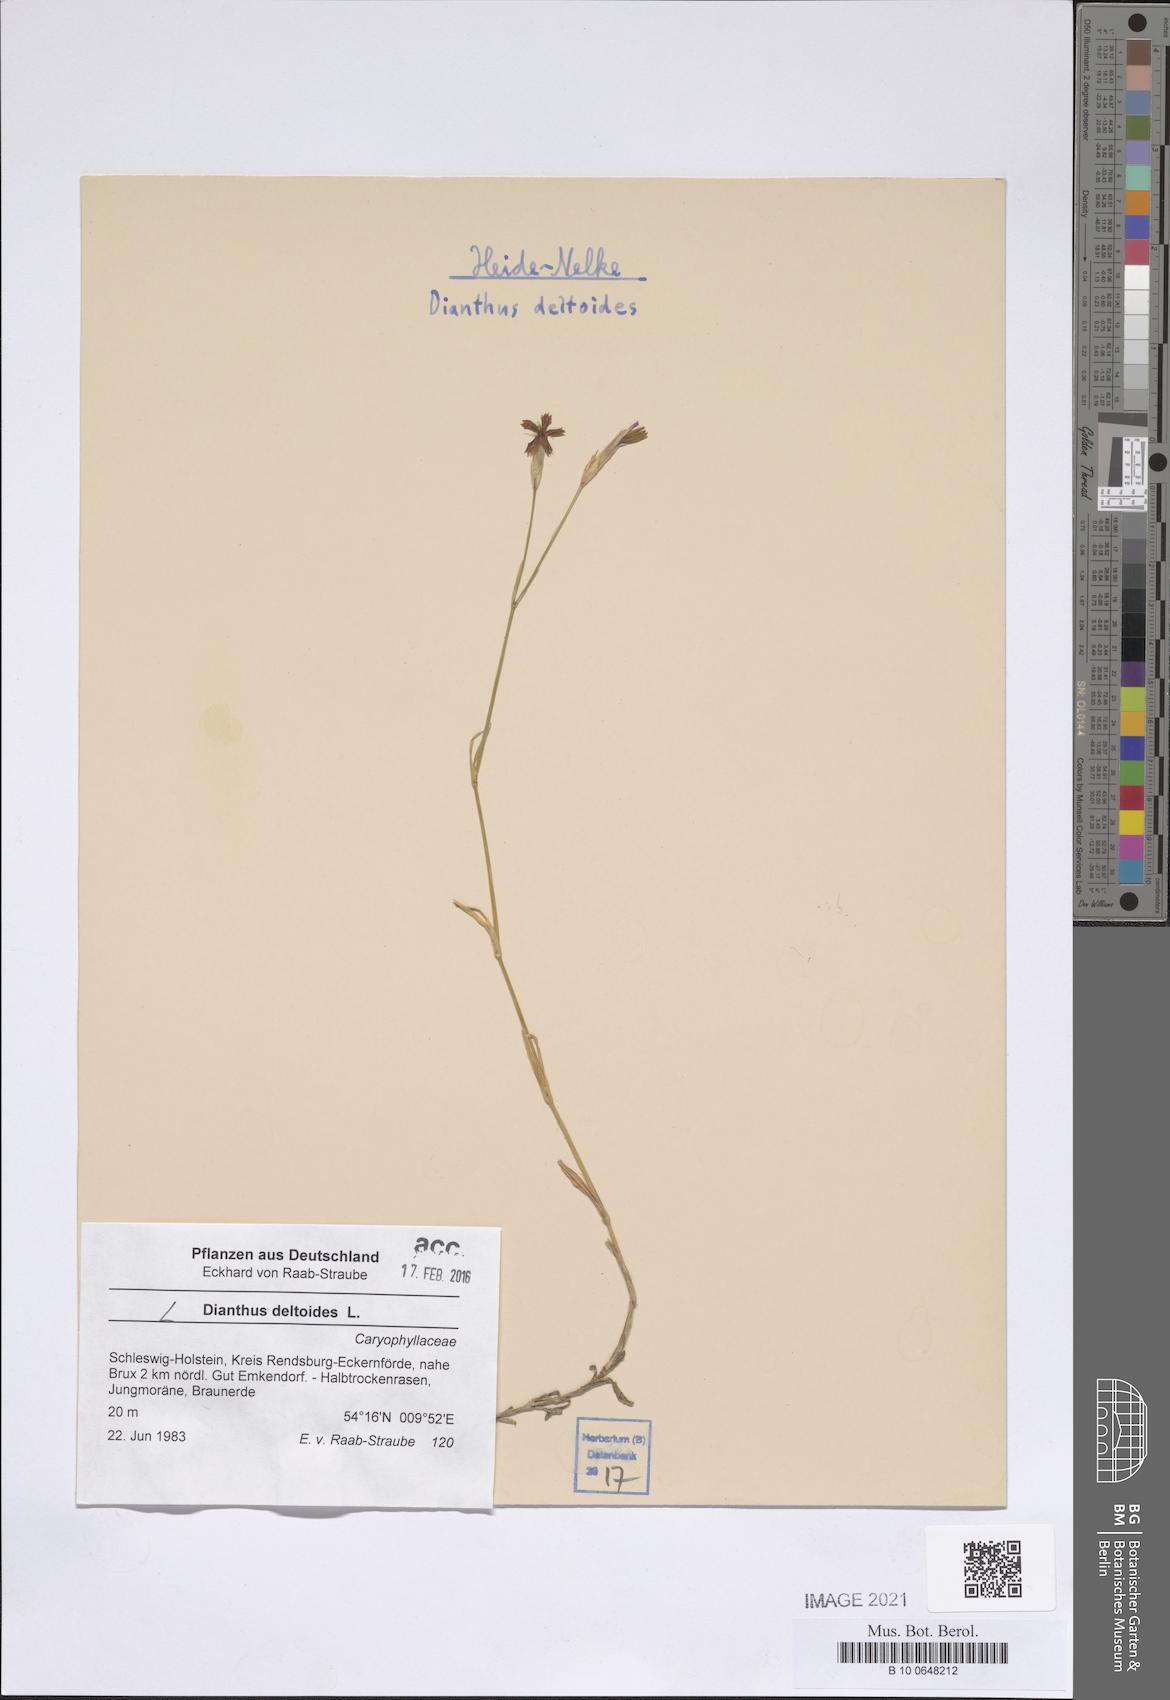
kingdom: Plantae
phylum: Tracheophyta
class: Magnoliopsida
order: Caryophyllales
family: Caryophyllaceae
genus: Dianthus
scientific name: Dianthus deltoides
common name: Maiden pink
